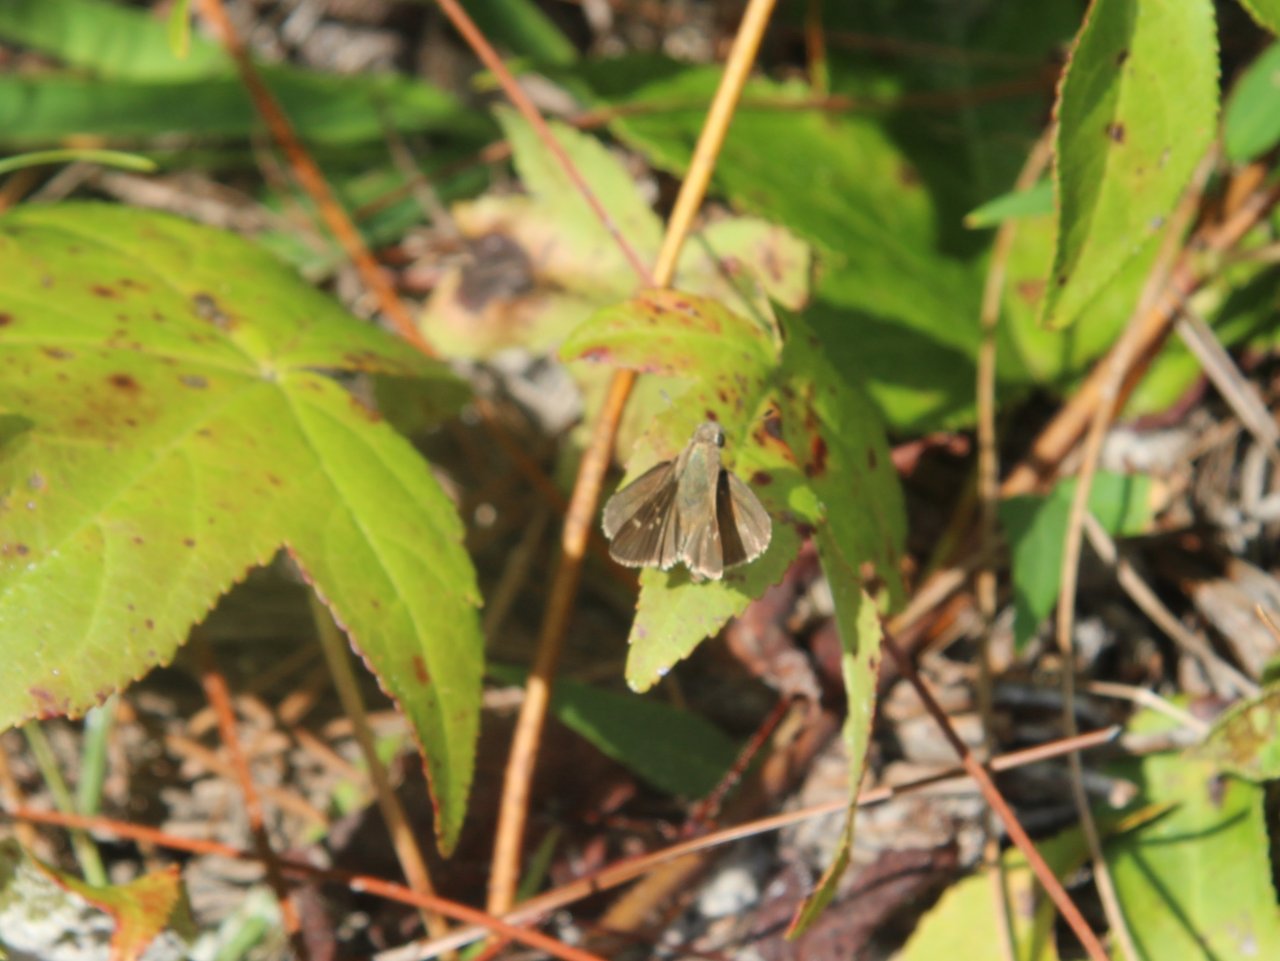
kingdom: Animalia
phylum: Arthropoda
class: Insecta
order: Lepidoptera
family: Hesperiidae
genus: Lerodea
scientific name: Lerodea eufala
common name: Eufala Skipper
